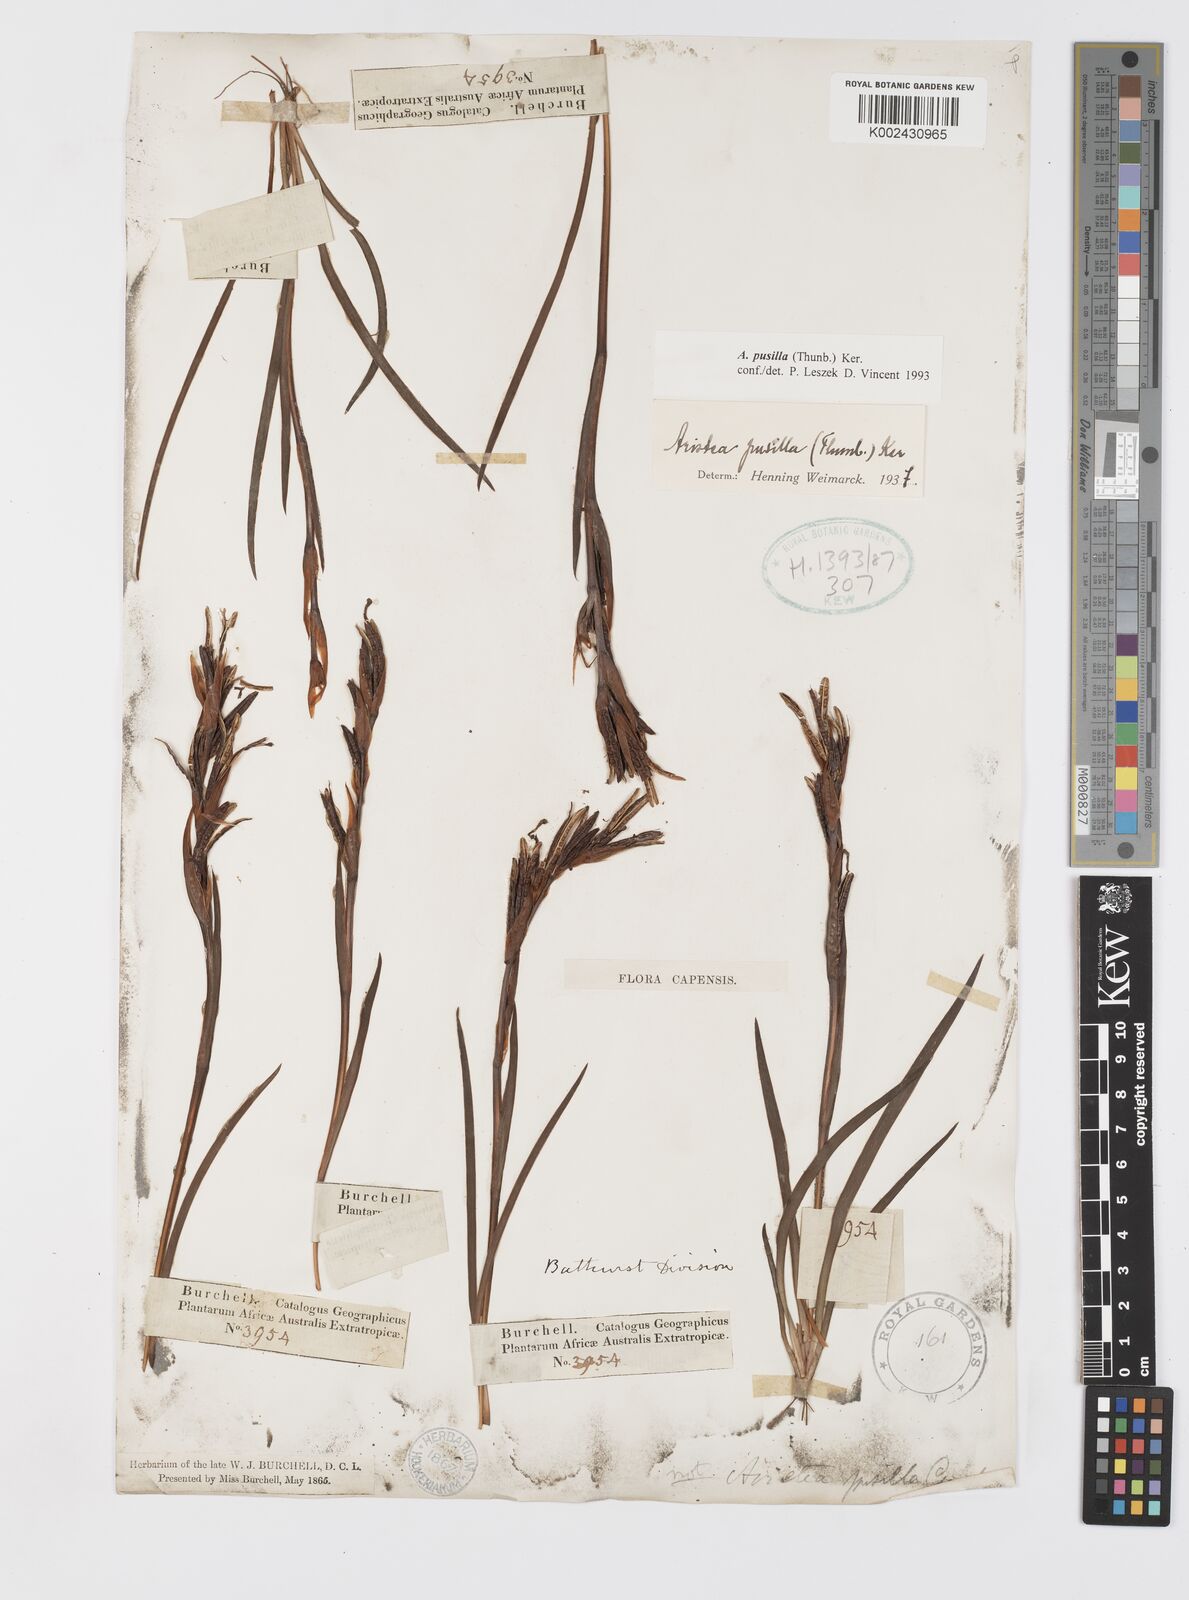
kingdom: Plantae
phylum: Tracheophyta
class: Liliopsida
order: Asparagales
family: Iridaceae
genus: Aristea
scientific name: Aristea pusilla
